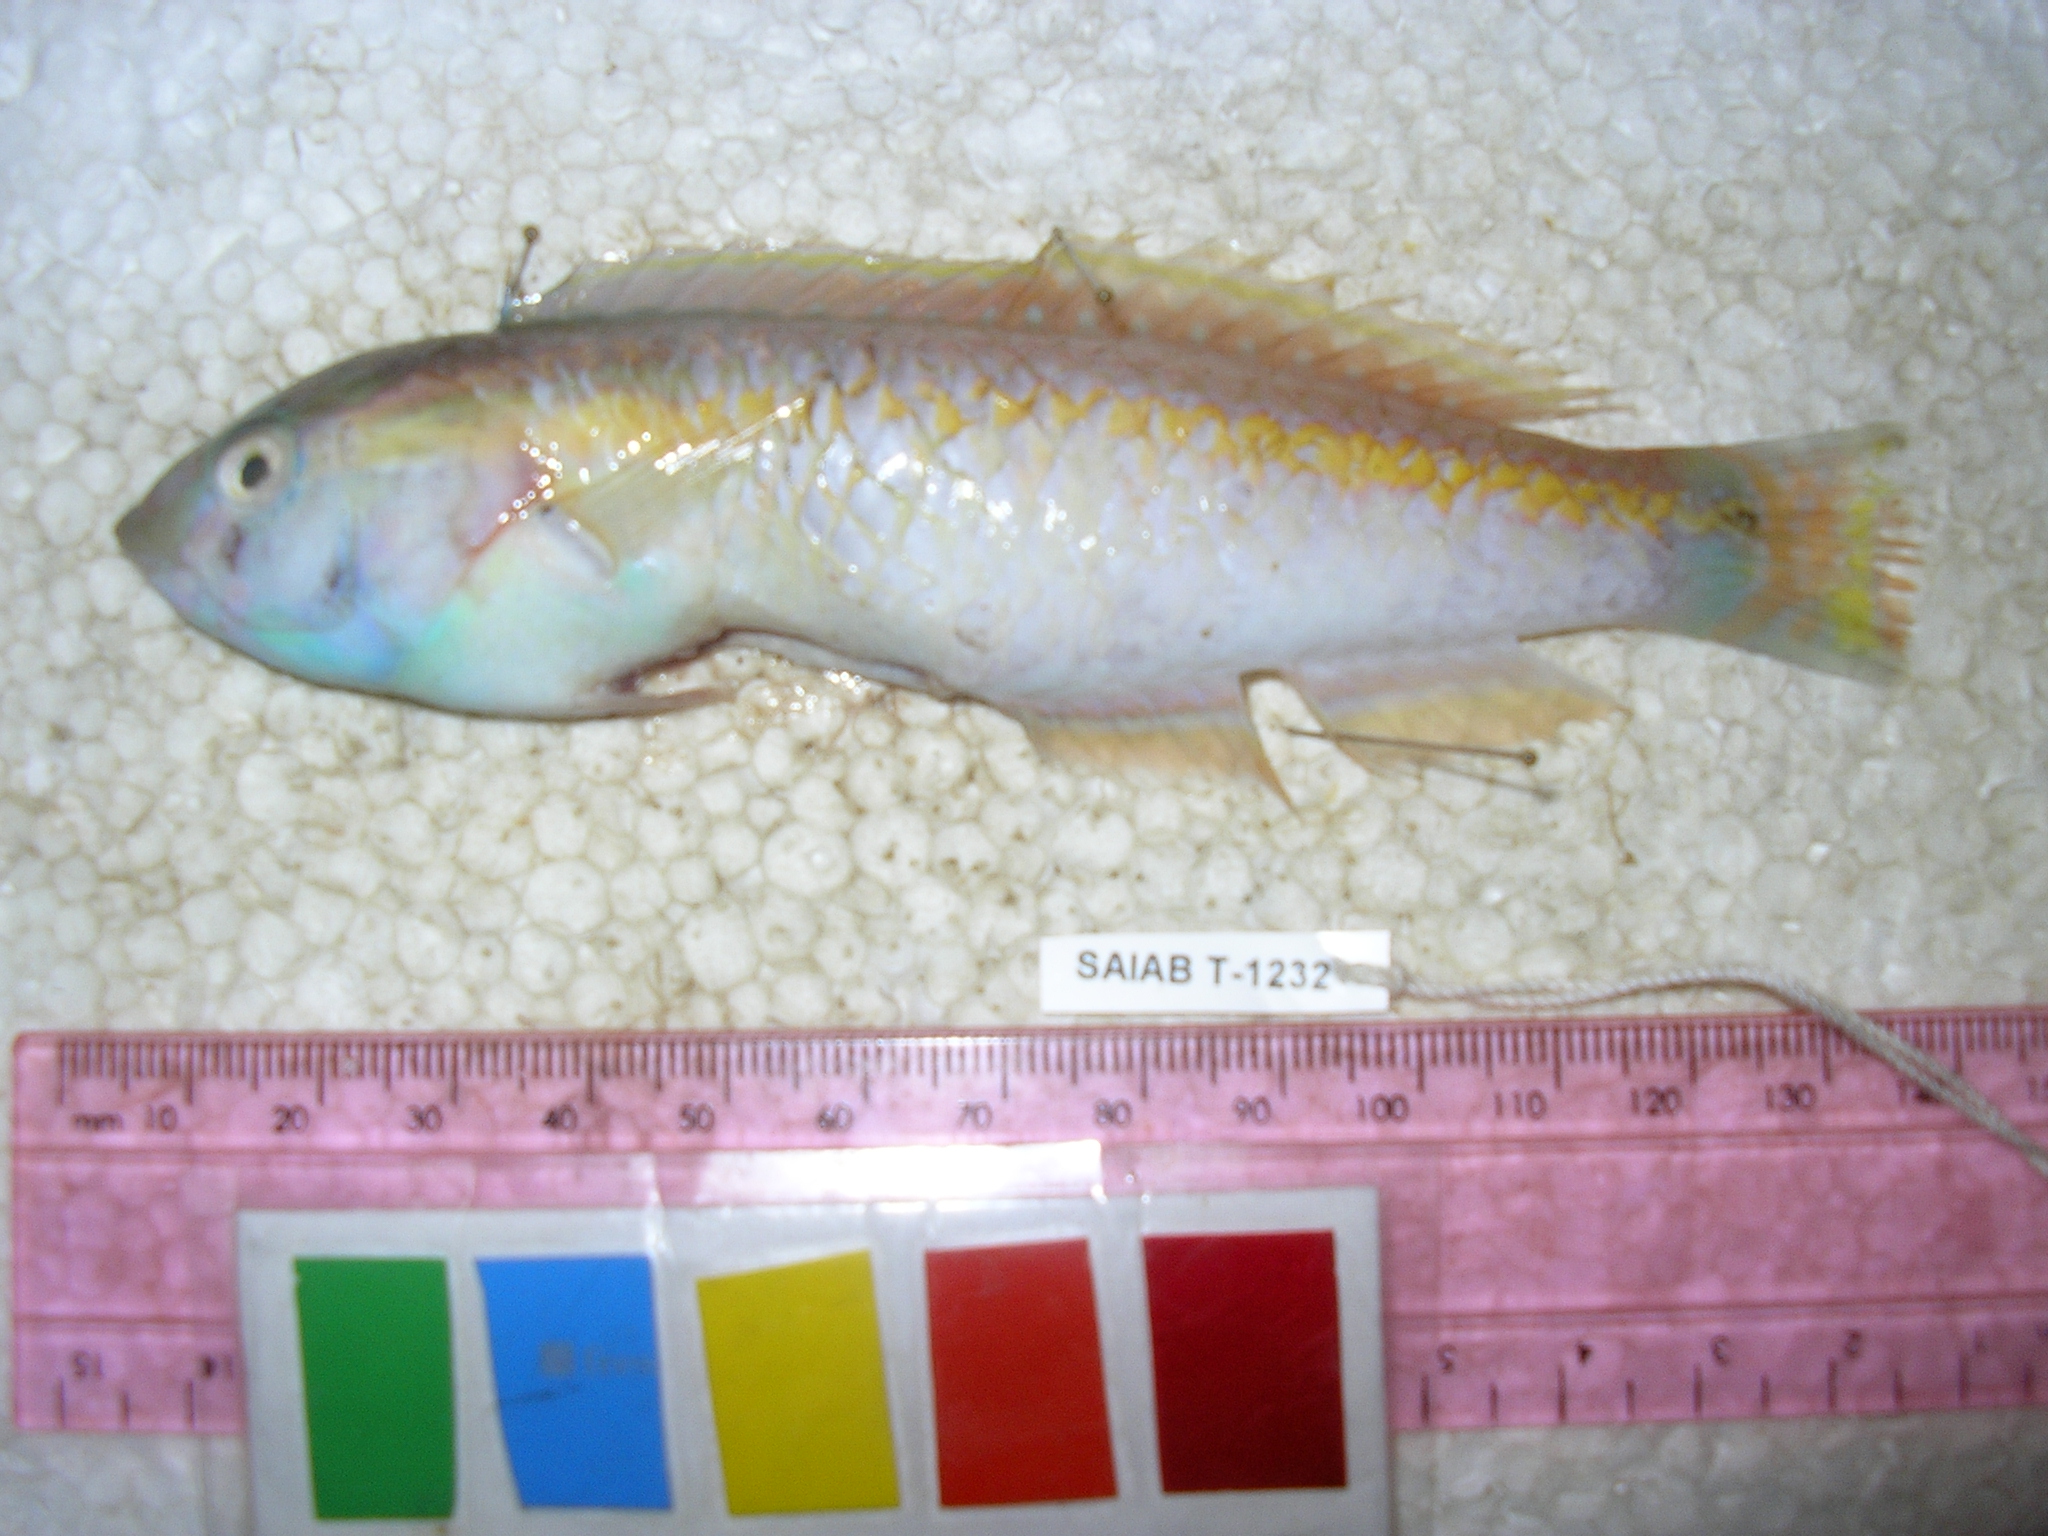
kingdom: Animalia
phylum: Chordata
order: Perciformes
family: Labridae
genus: Halichoeres
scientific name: Halichoeres zeylonicus
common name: Goldstripe wrasse
